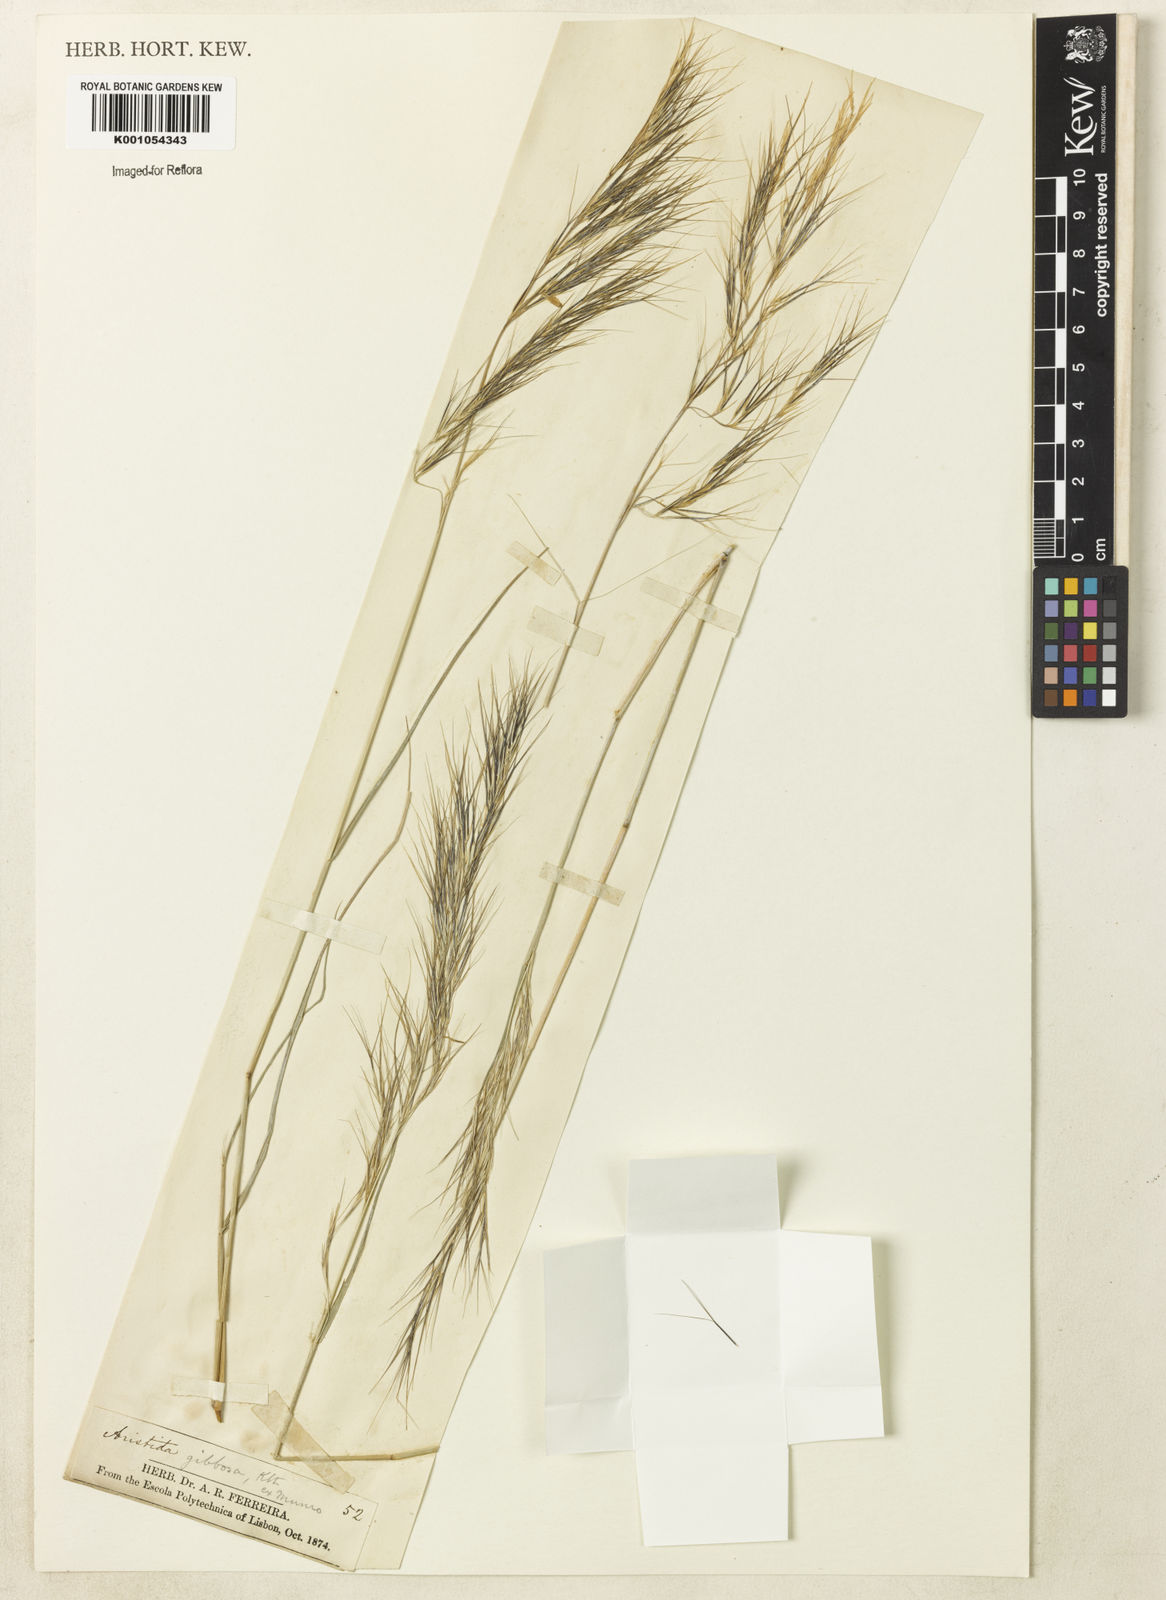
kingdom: Plantae
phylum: Tracheophyta
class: Liliopsida
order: Poales
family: Poaceae
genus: Aristida
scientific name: Aristida laevis
